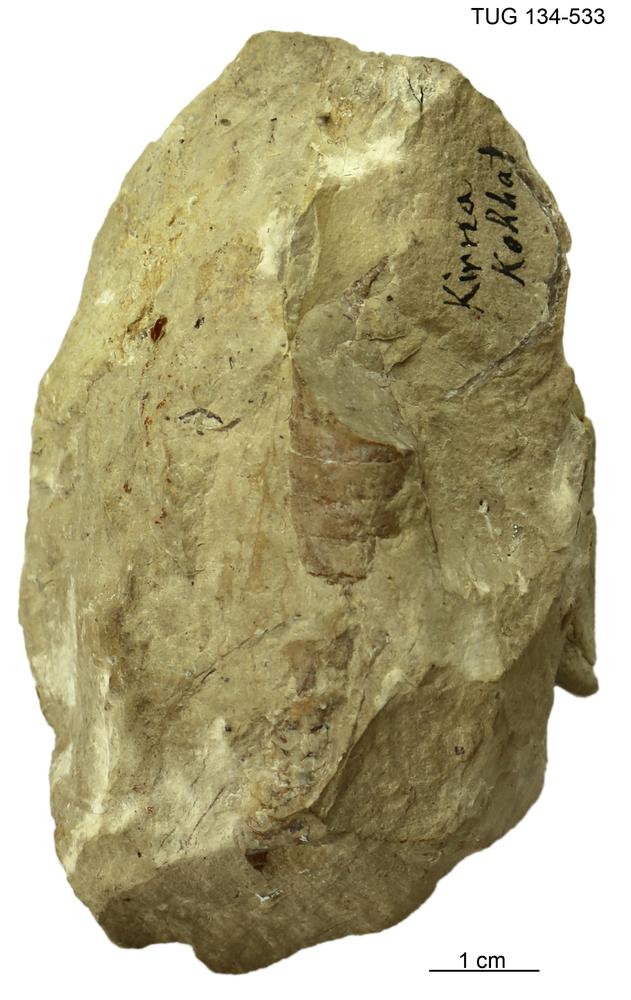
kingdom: Animalia
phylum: Mollusca
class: Cephalopoda
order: Orthocerida
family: Orthoceratidae
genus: Orthoceras
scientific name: Orthoceras
